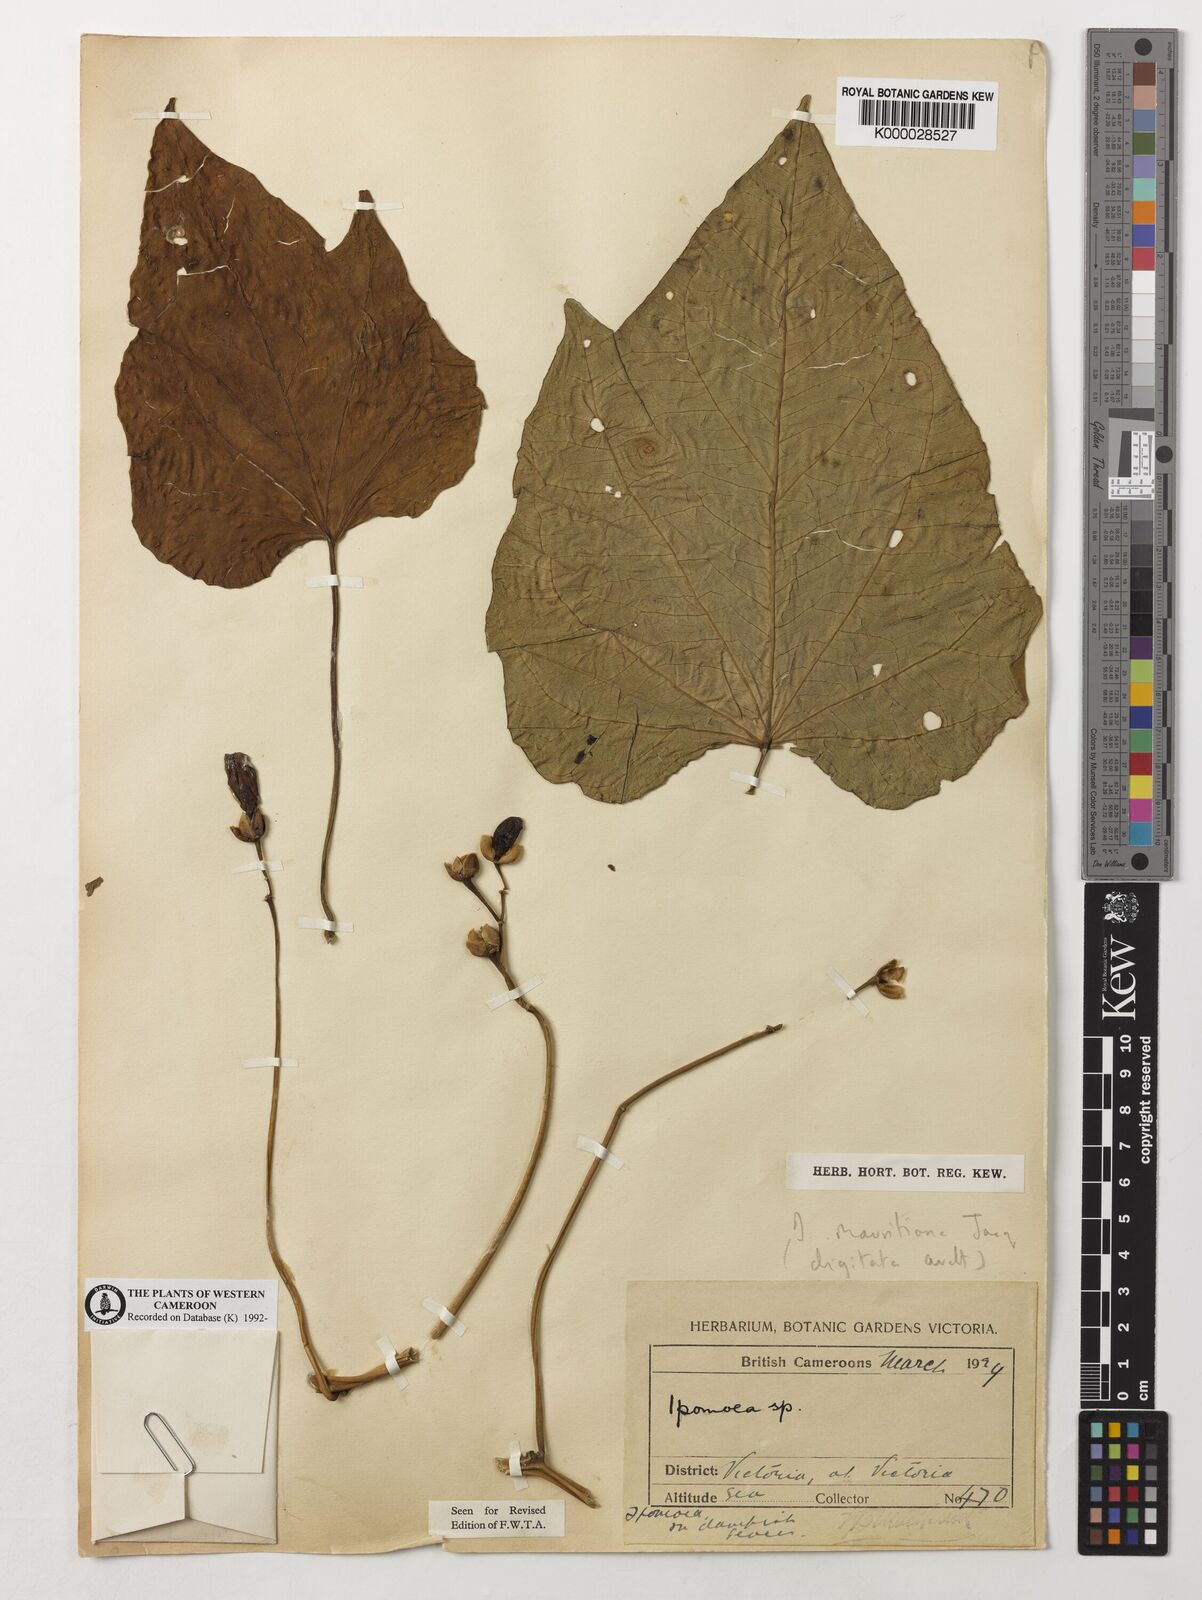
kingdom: Plantae
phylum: Tracheophyta
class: Magnoliopsida
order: Solanales
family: Convolvulaceae
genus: Ipomoea
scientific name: Ipomoea mauritiana
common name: Mauritanian convolvulus
